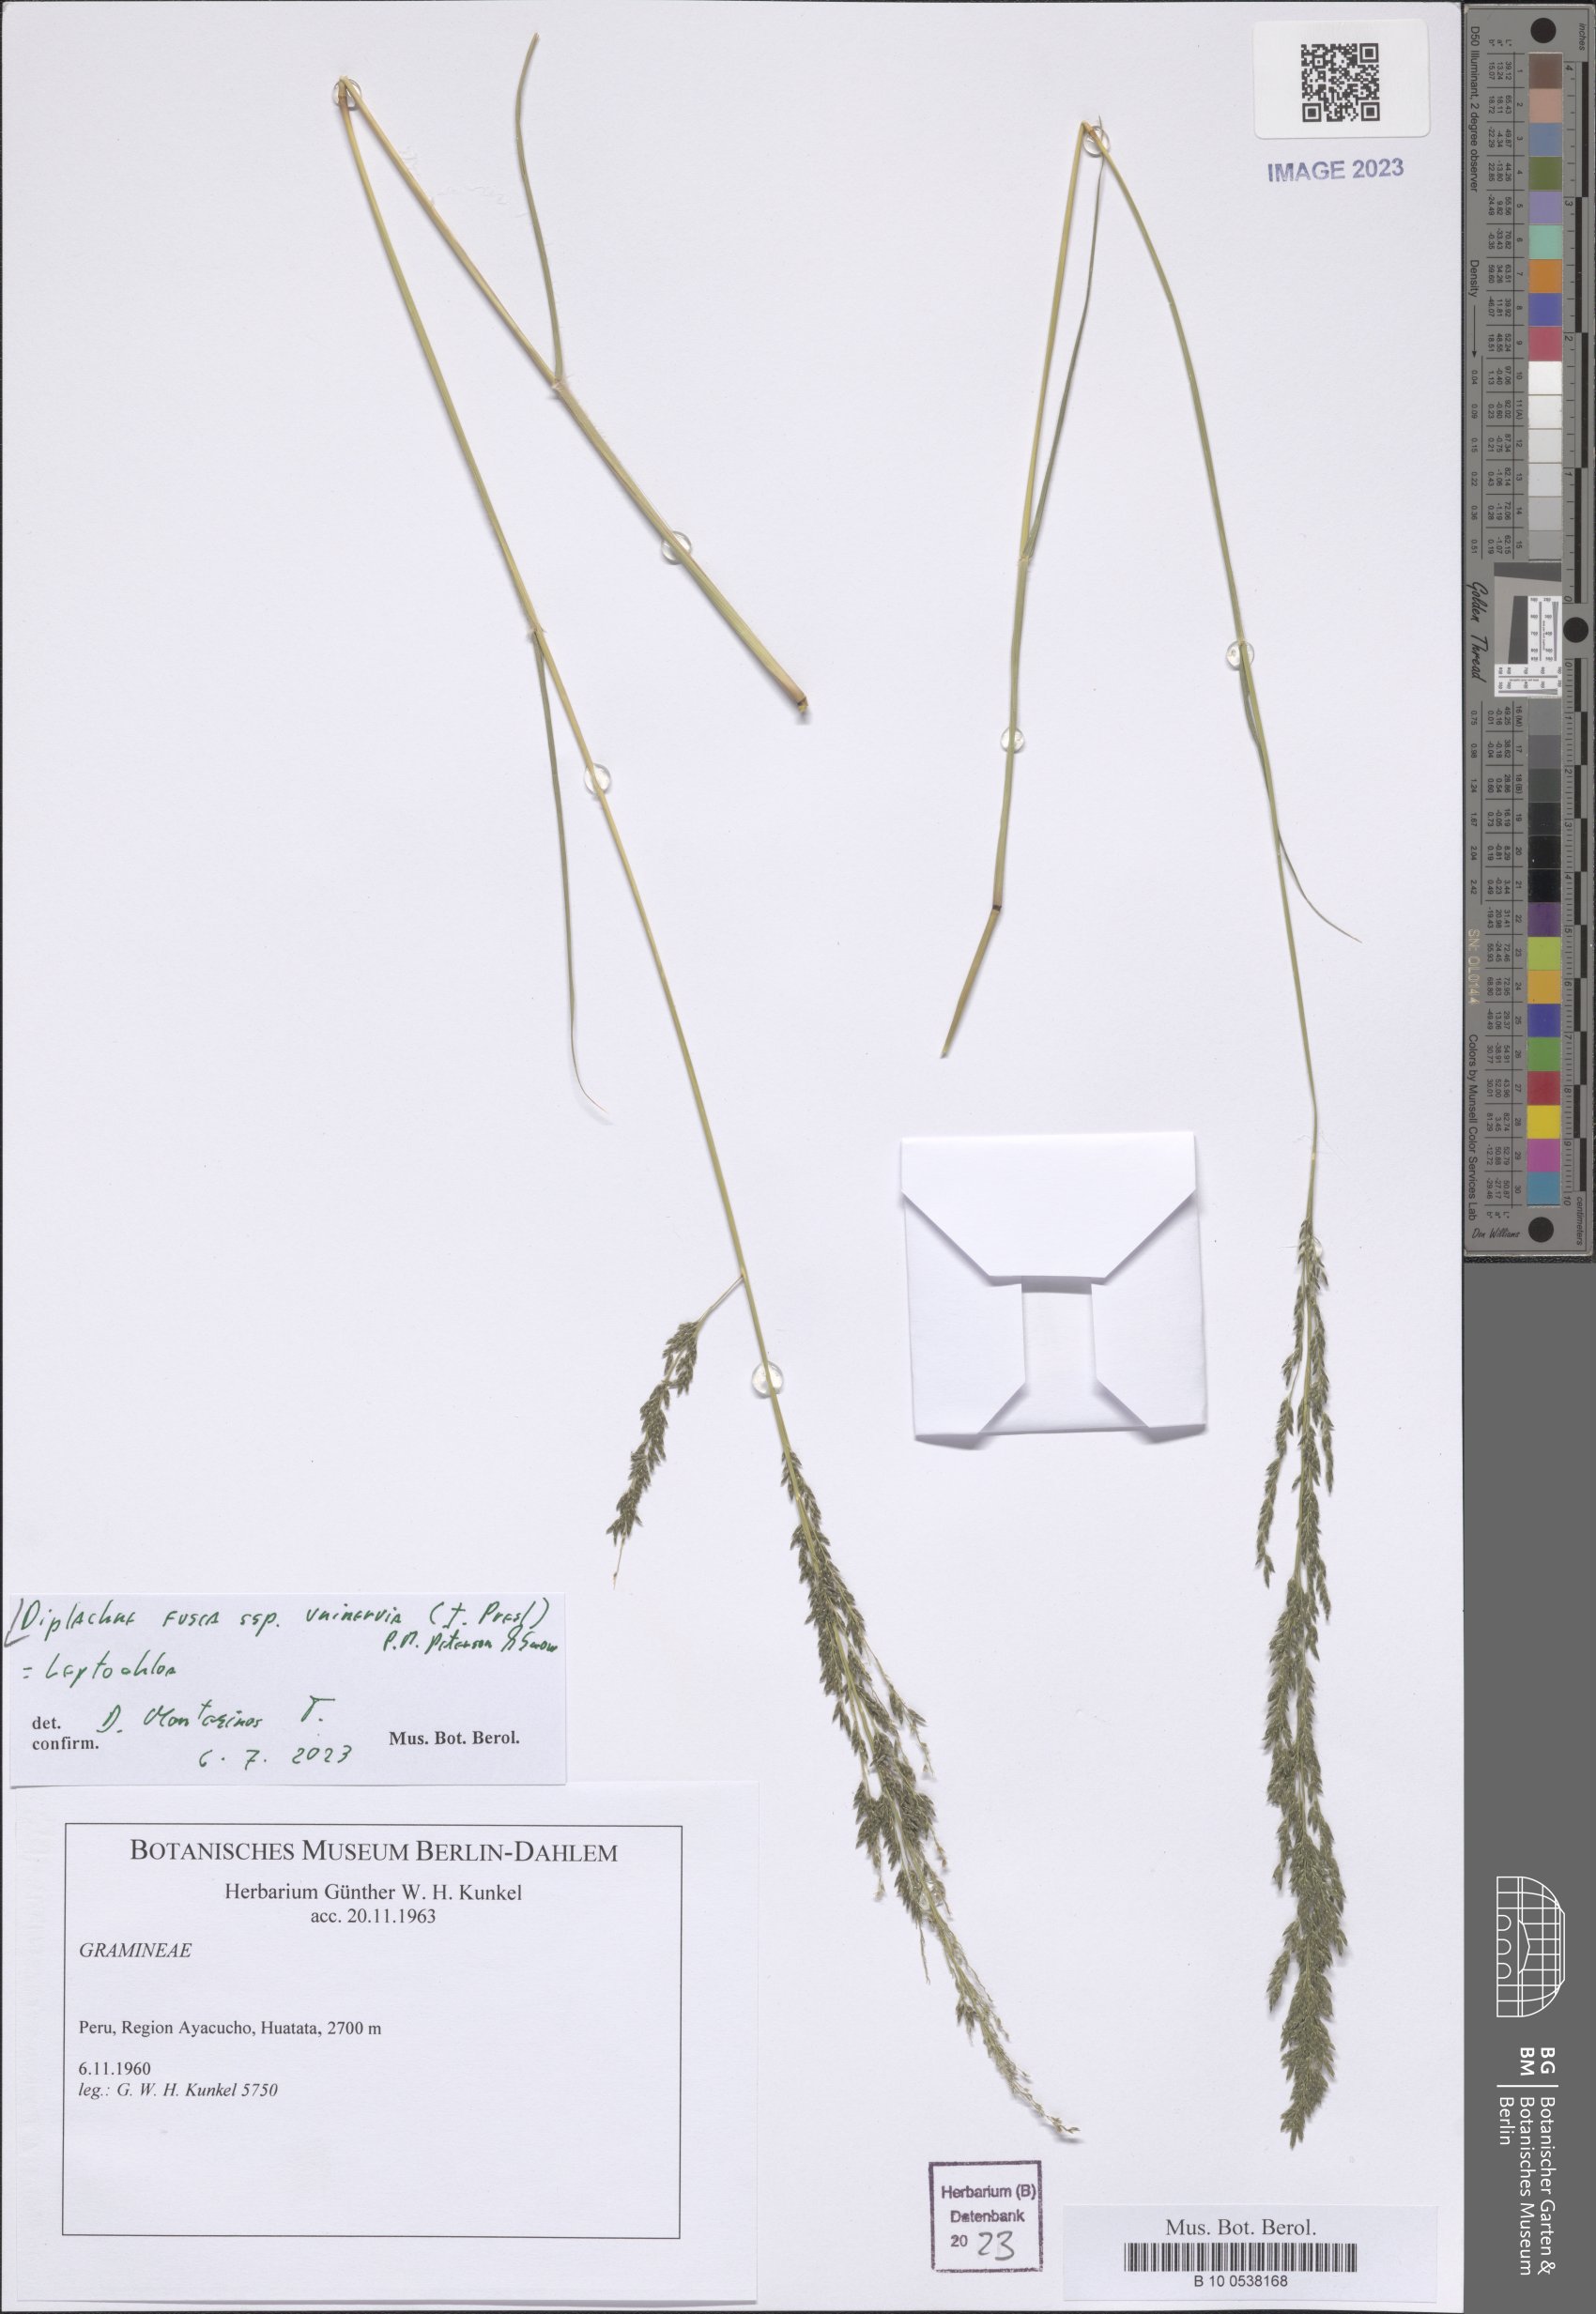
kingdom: Plantae
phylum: Tracheophyta
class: Liliopsida
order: Poales
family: Poaceae
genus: Diplachne
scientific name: Diplachne fusca
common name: Brown beetle grass
